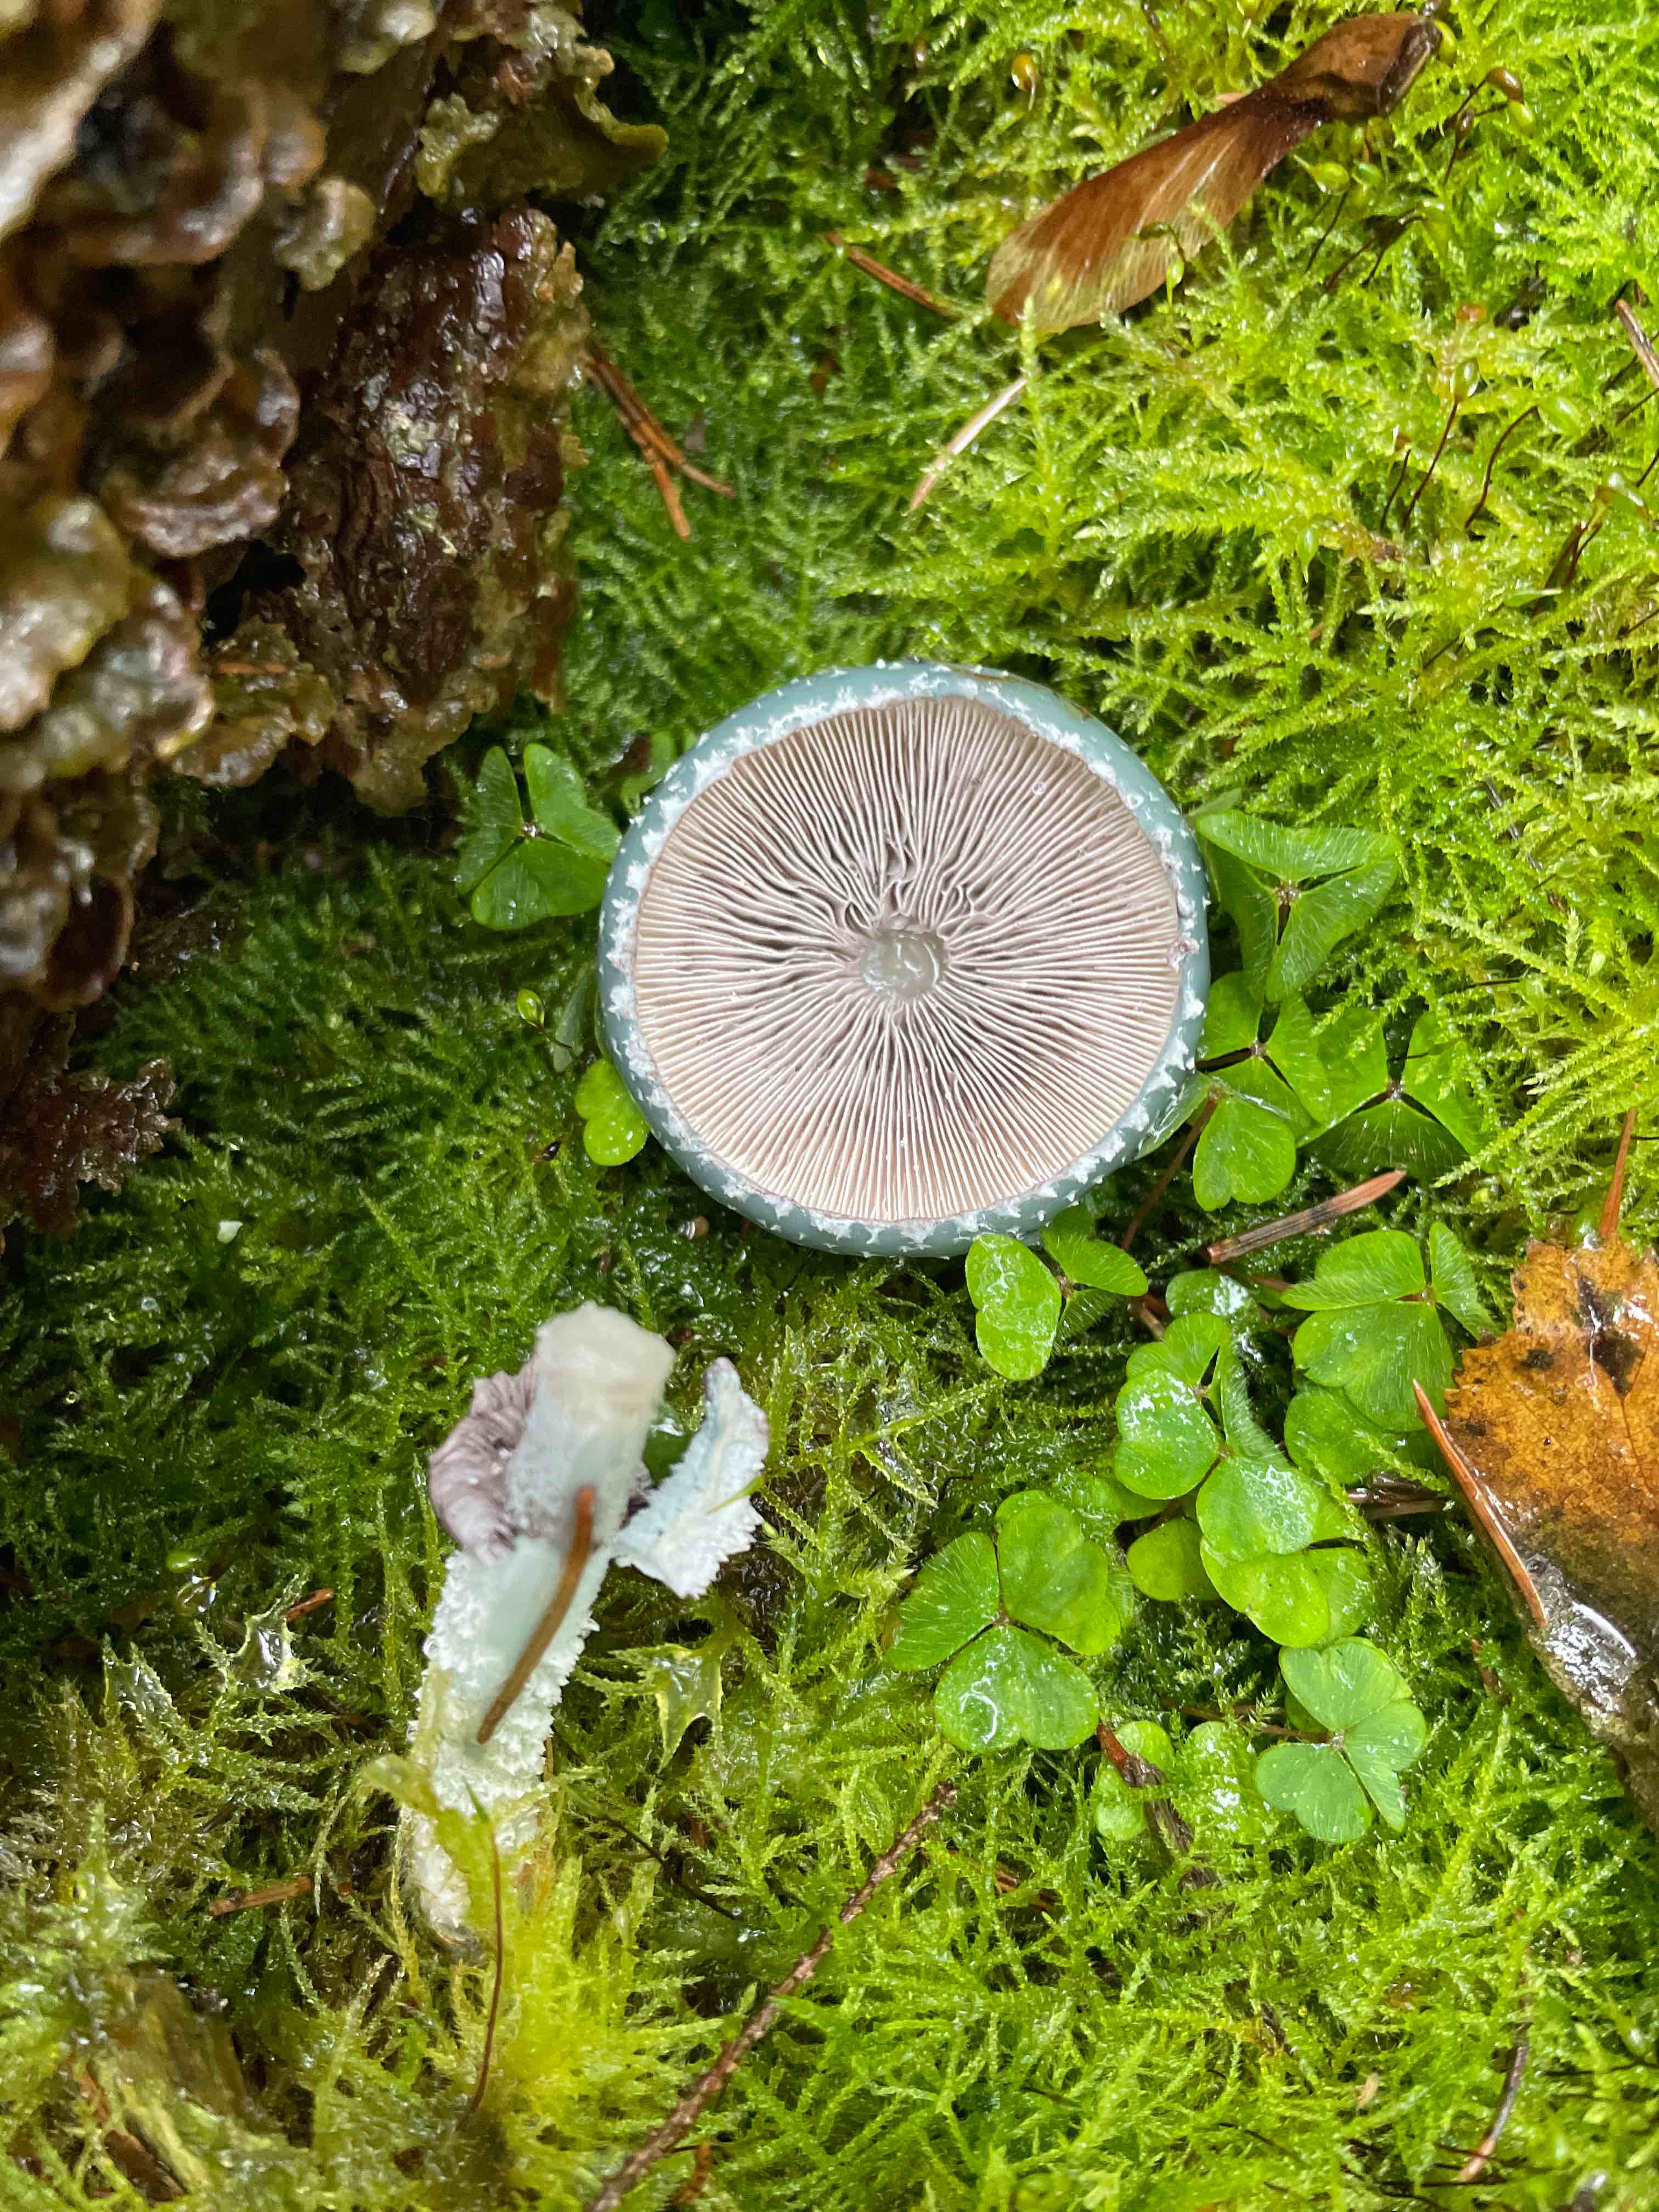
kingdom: Fungi
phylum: Basidiomycota
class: Agaricomycetes
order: Agaricales
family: Strophariaceae
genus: Stropharia
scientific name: Stropharia
